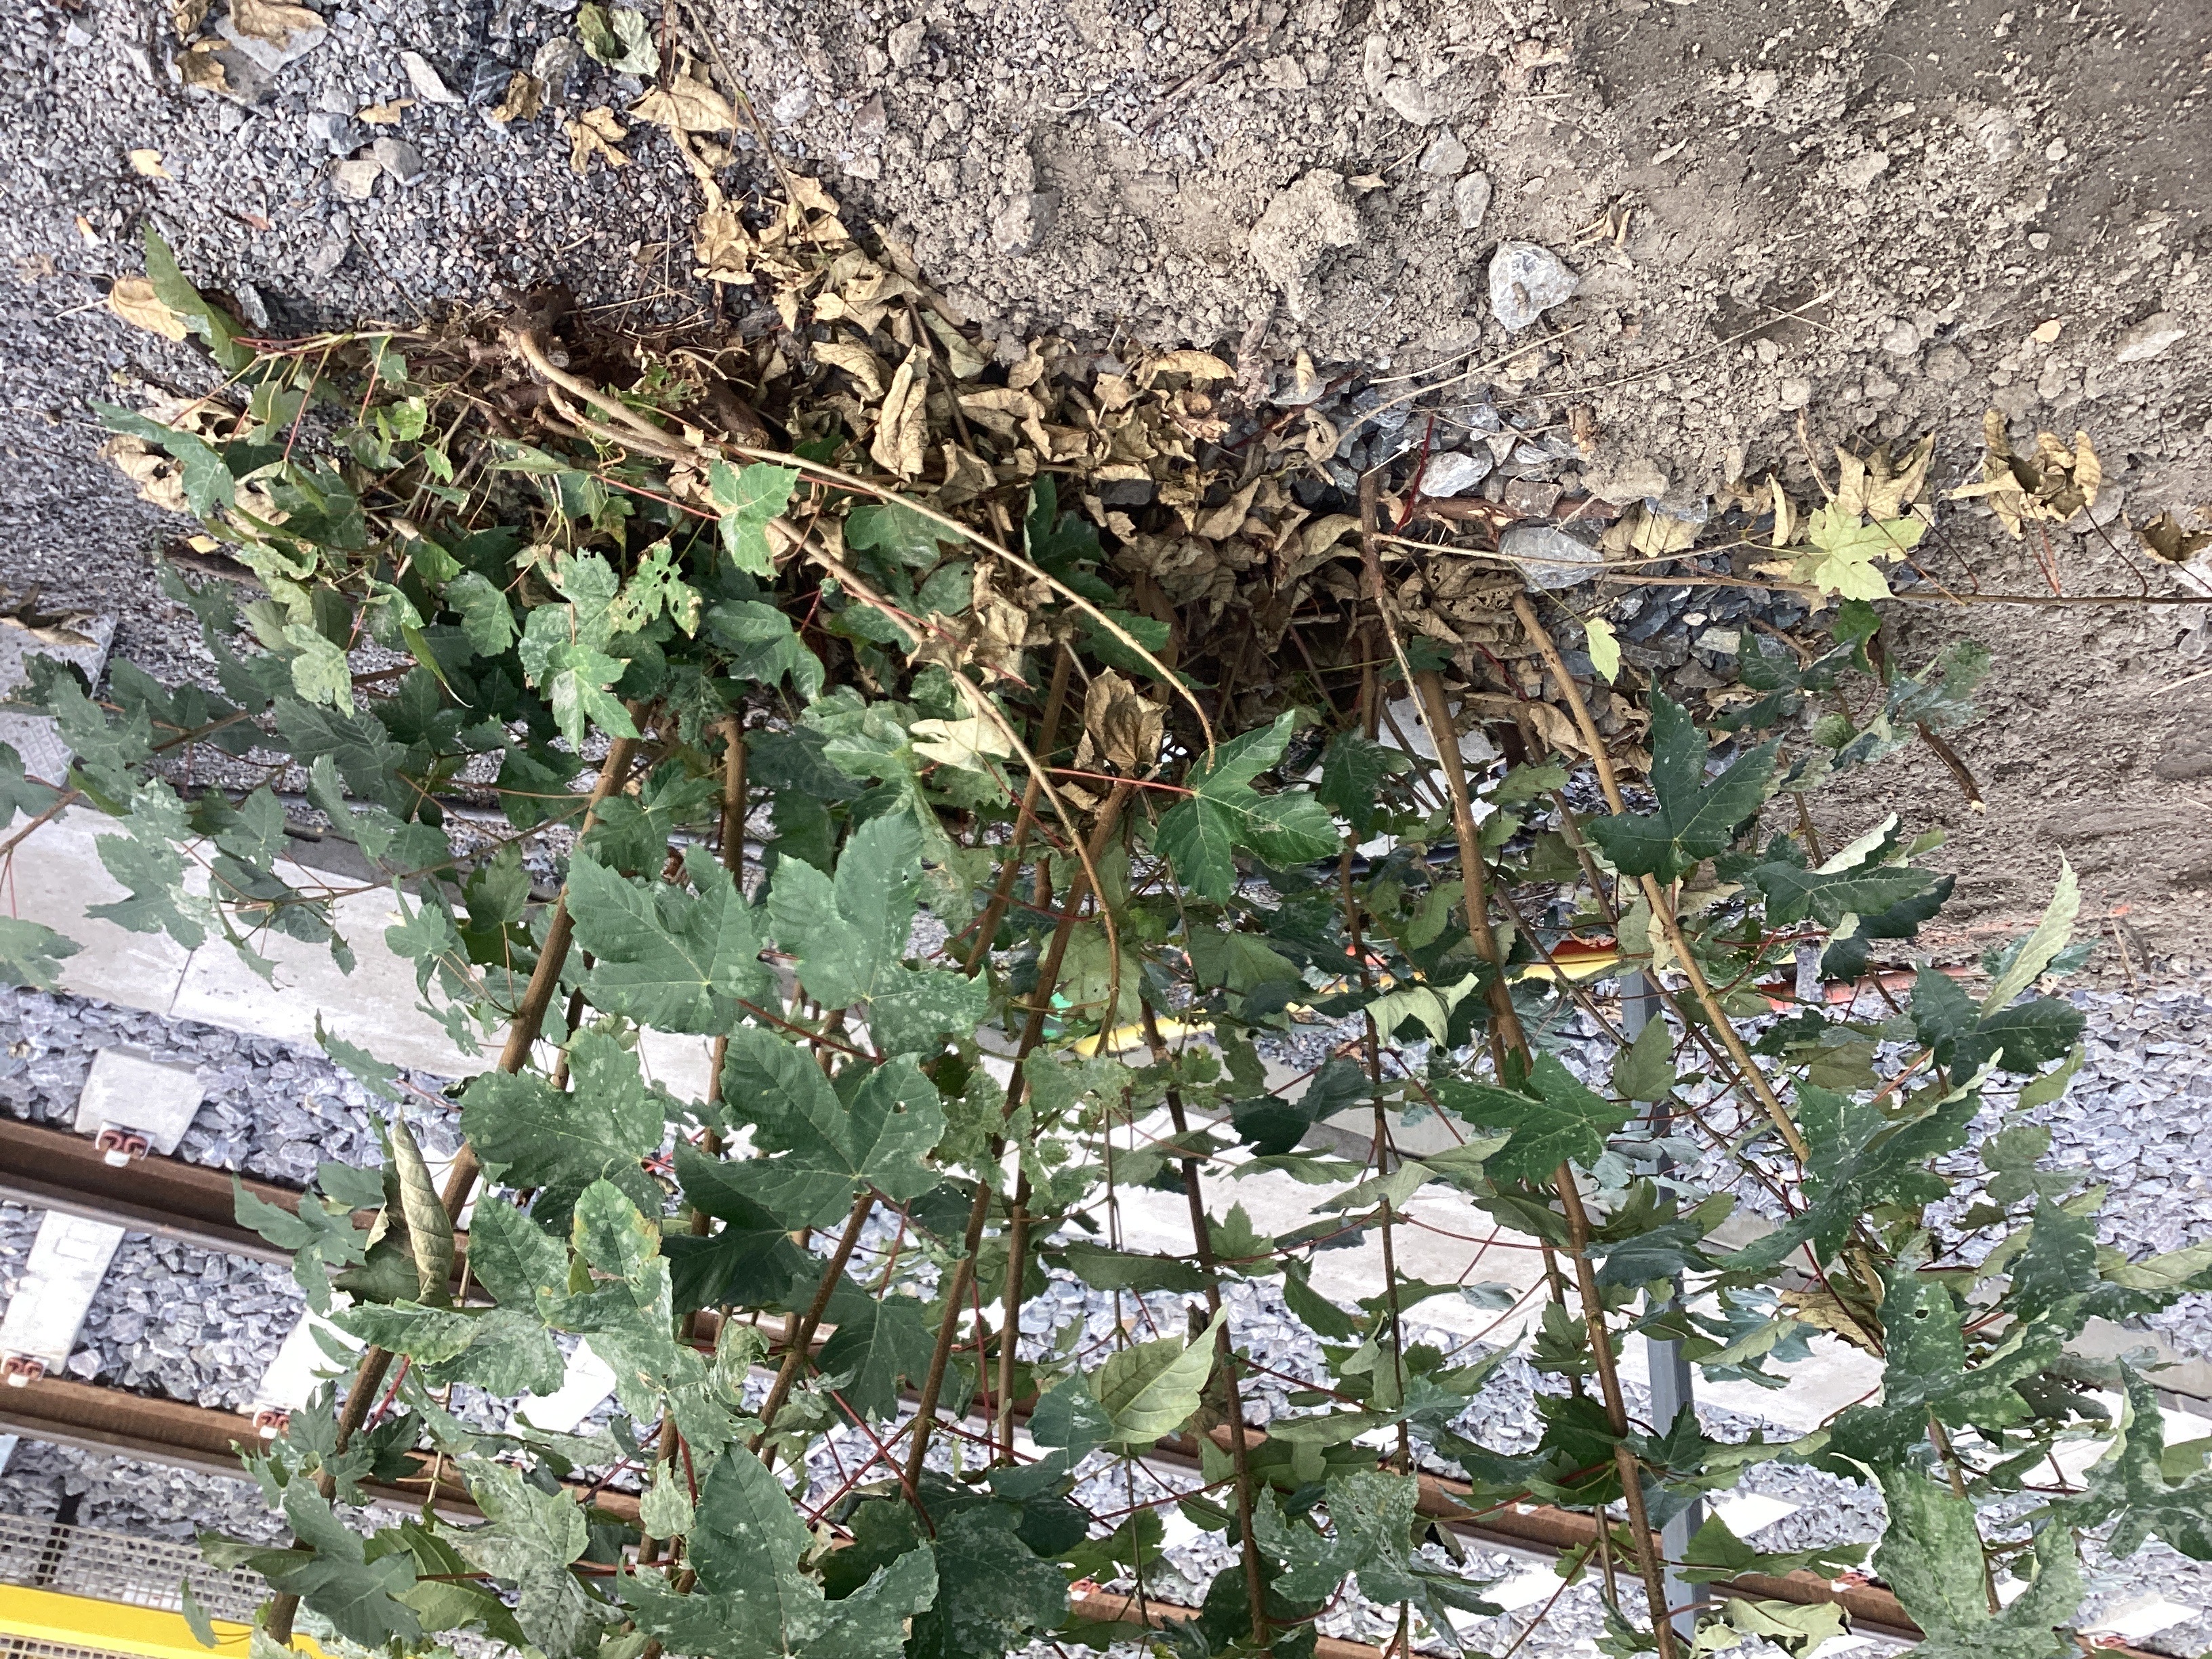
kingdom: Plantae
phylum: Tracheophyta
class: Magnoliopsida
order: Sapindales
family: Sapindaceae
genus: Acer
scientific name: Acer pseudoplatanus
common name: platanlønn
